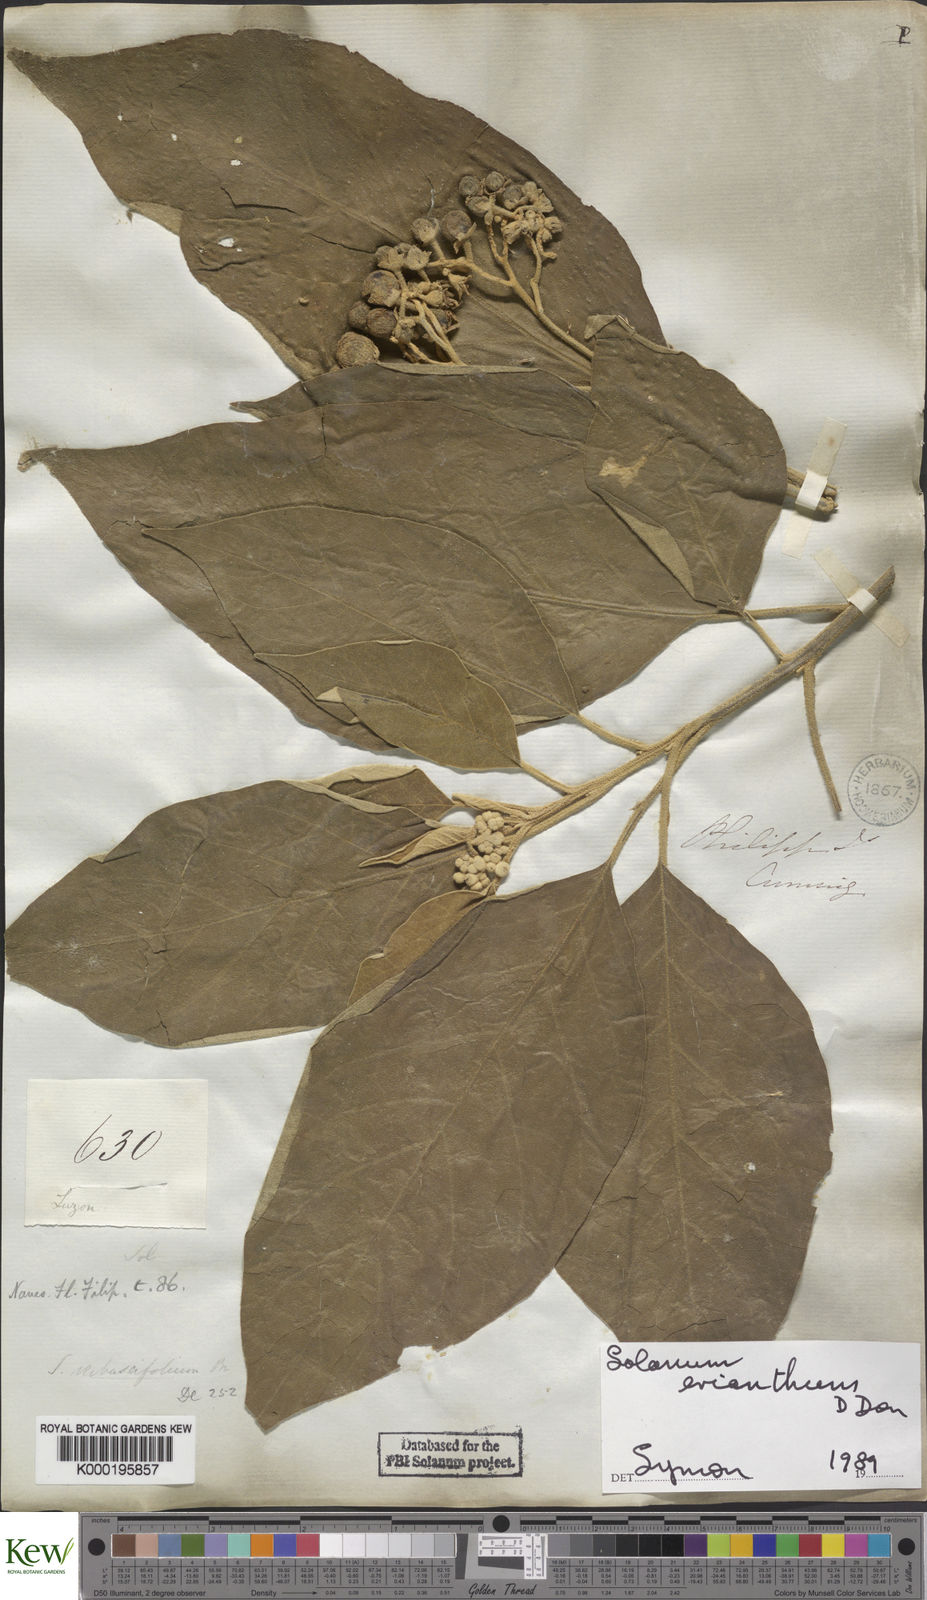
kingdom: Plantae
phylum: Tracheophyta
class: Magnoliopsida
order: Solanales
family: Solanaceae
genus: Solanum
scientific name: Solanum erianthum
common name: Tobacco-tree
